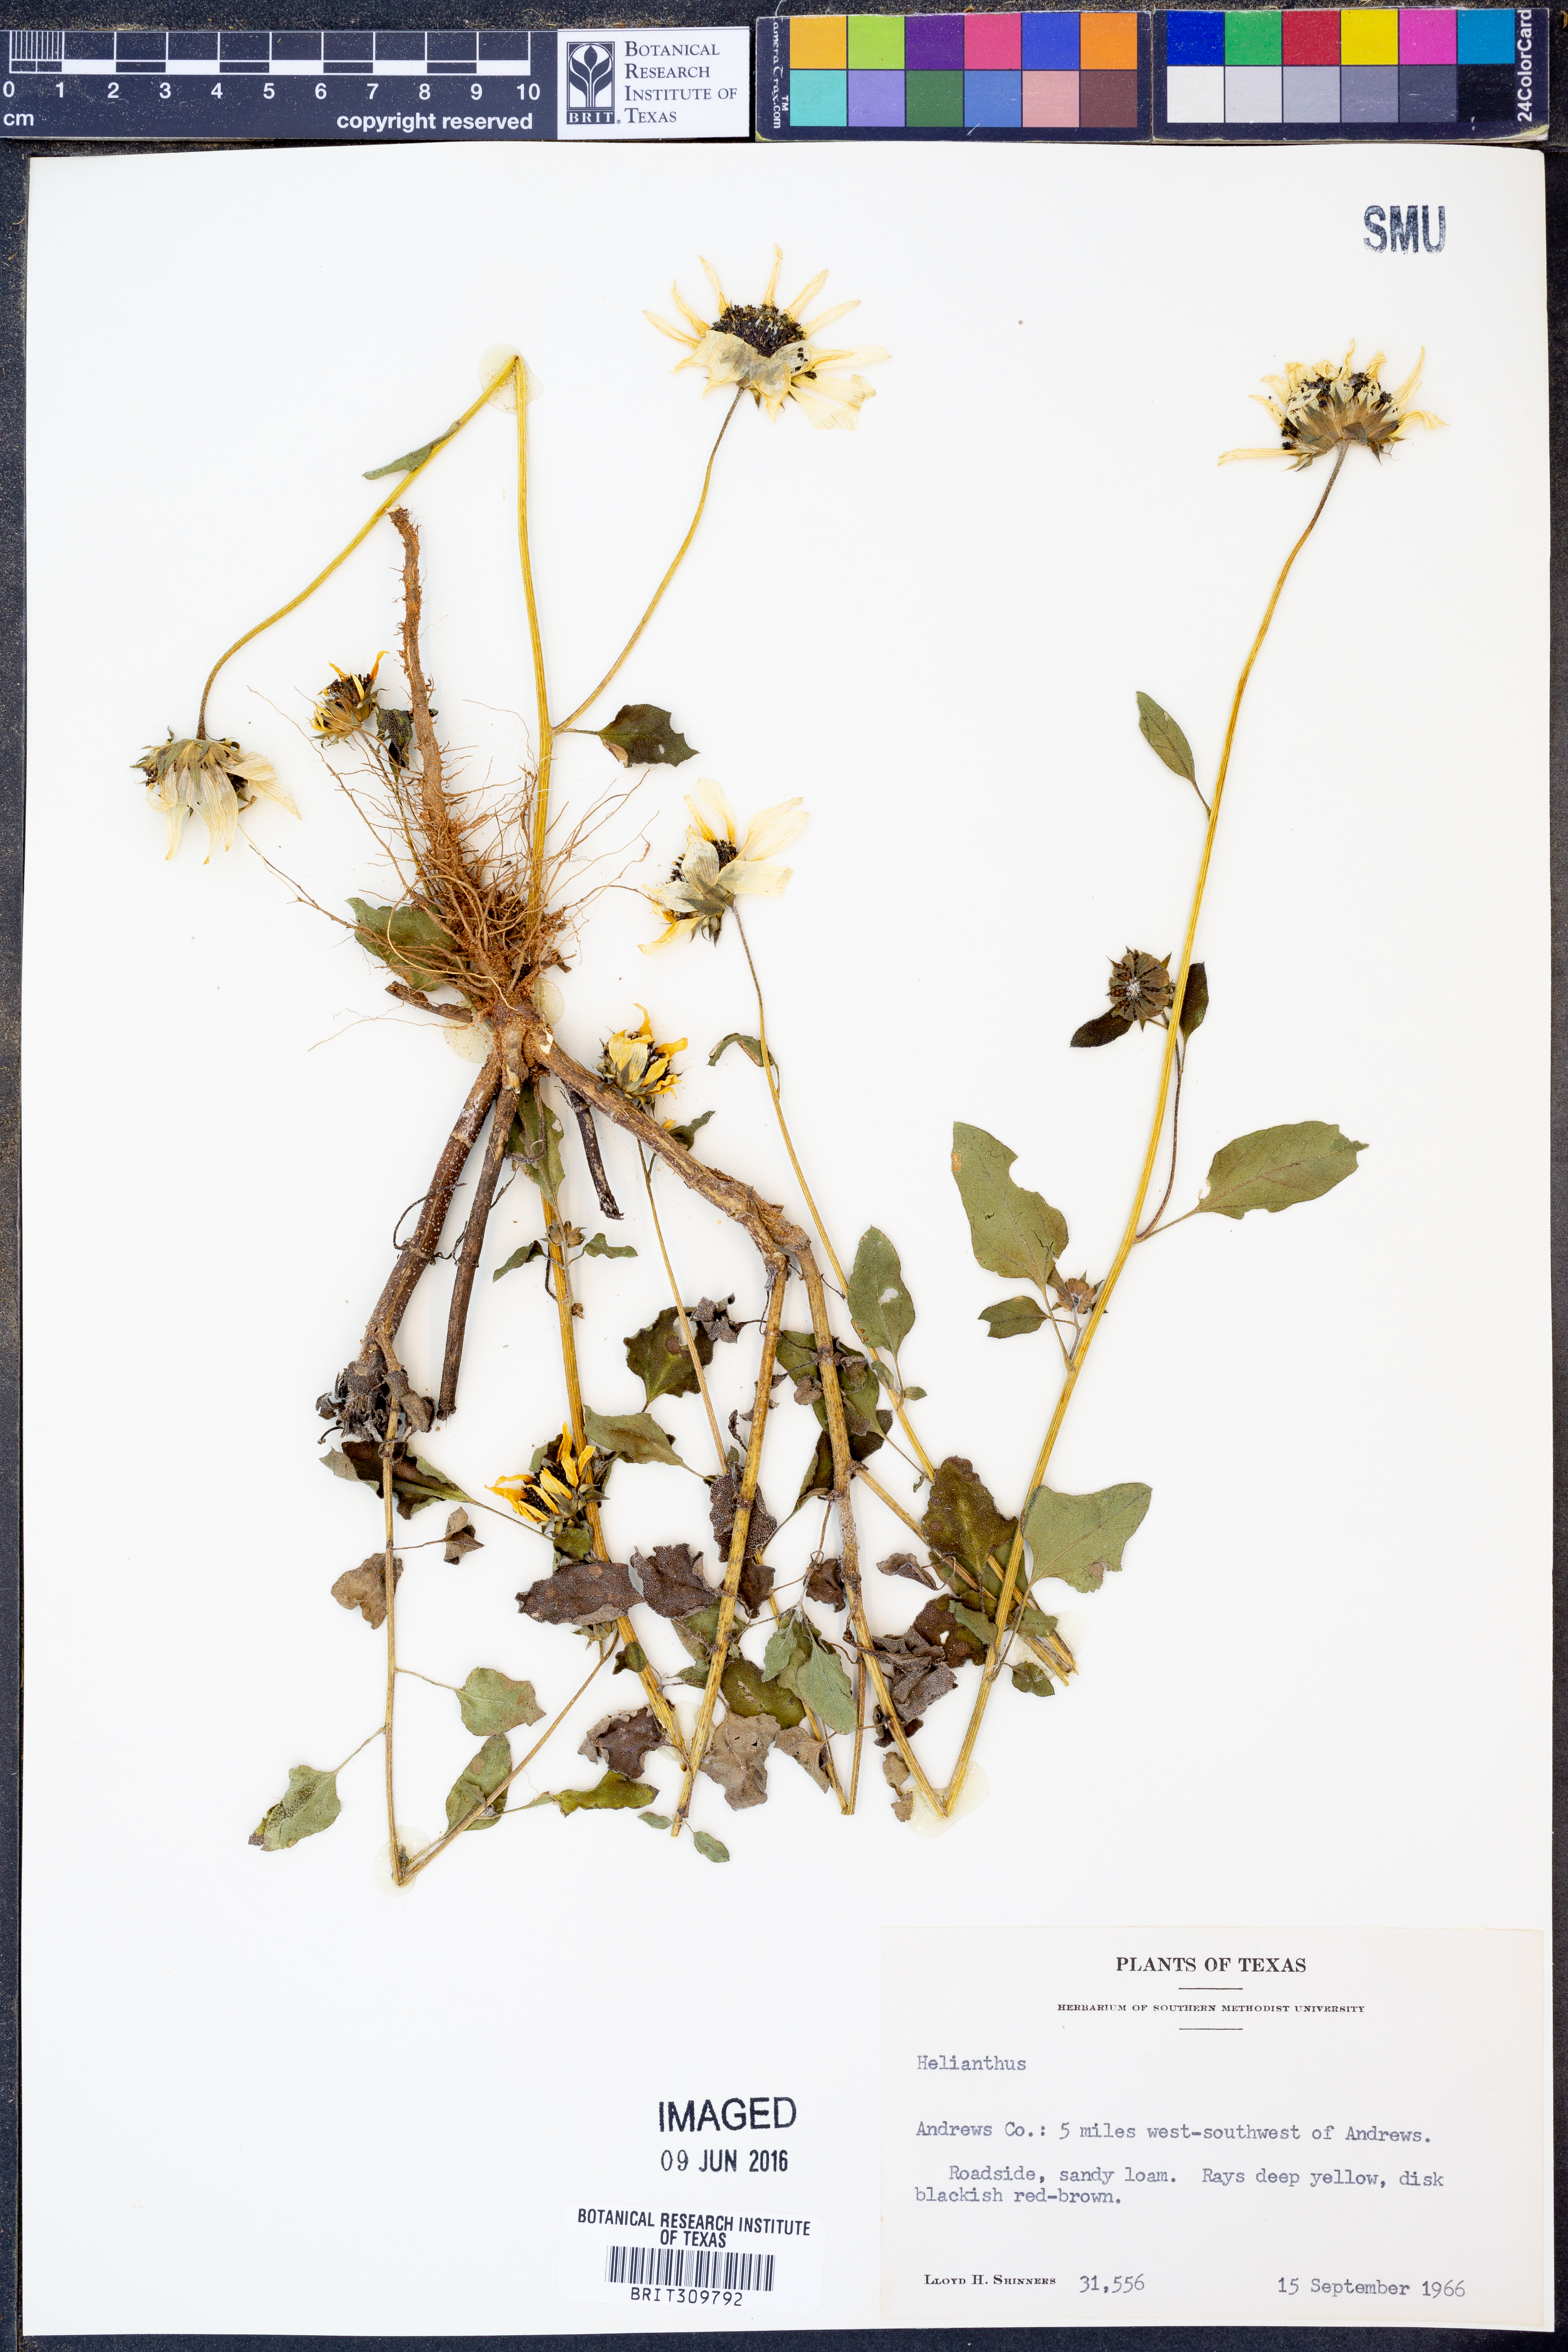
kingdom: Plantae
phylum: Tracheophyta
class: Magnoliopsida
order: Asterales
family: Asteraceae
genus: Helianthus
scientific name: Helianthus
